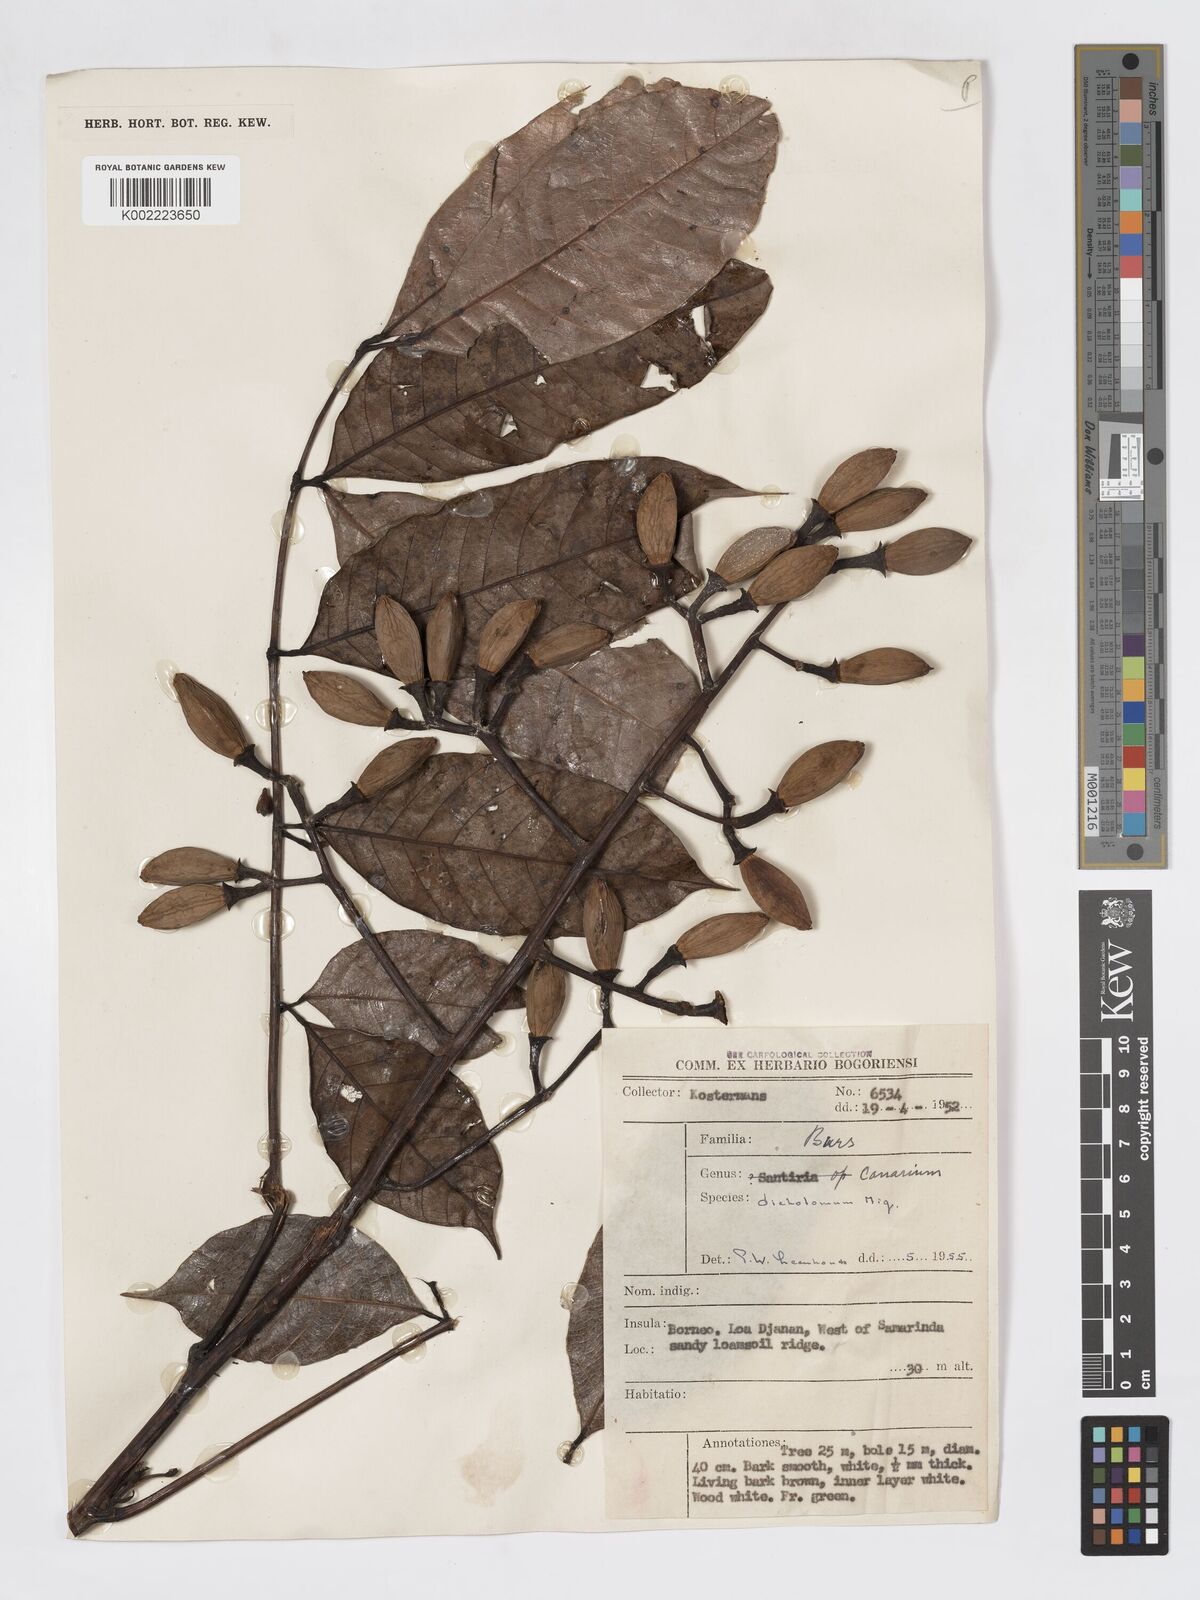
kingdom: Plantae
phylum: Tracheophyta
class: Magnoliopsida
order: Sapindales
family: Burseraceae
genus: Canarium
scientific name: Canarium dichotomum
